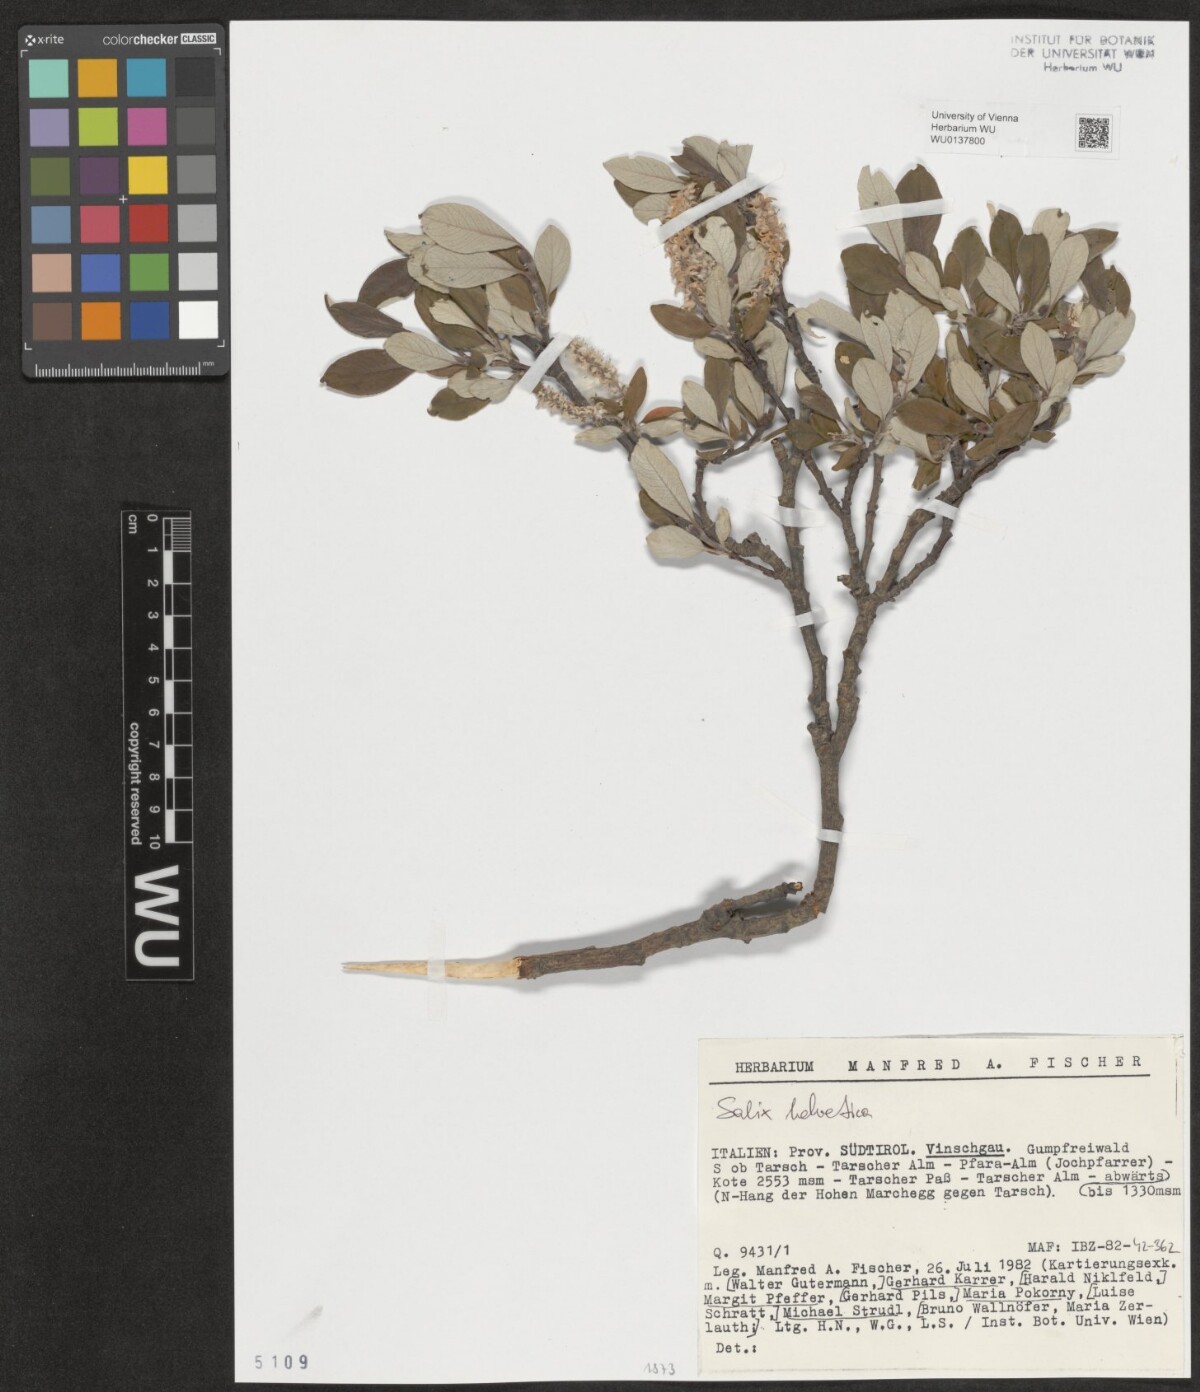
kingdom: Plantae
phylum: Tracheophyta
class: Magnoliopsida
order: Malpighiales
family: Salicaceae
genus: Salix
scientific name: Salix helvetica
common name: Swiss willow
